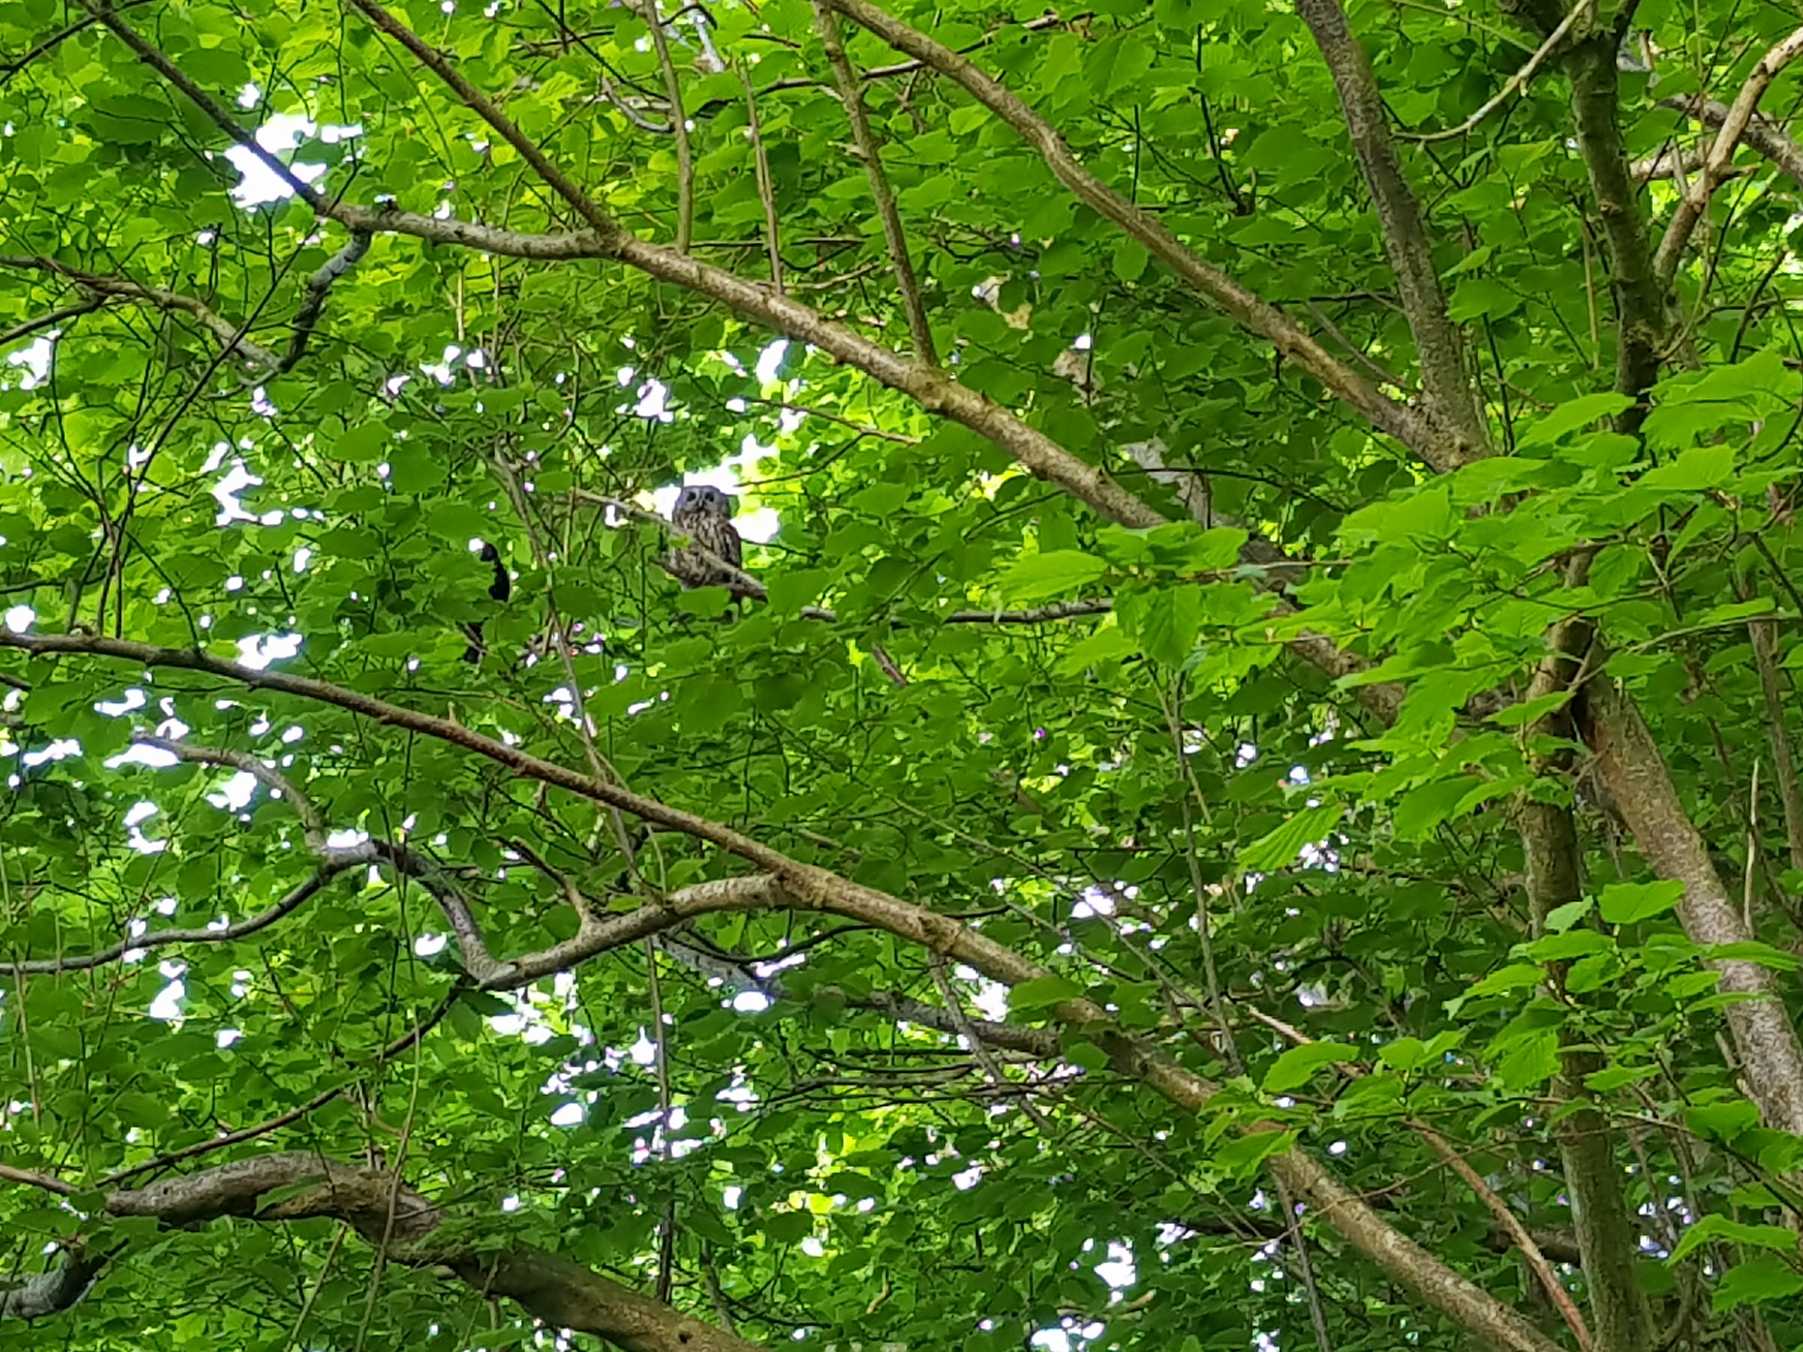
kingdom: Animalia
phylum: Chordata
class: Aves
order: Strigiformes
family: Strigidae
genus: Strix
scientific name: Strix aluco
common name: Natugle
